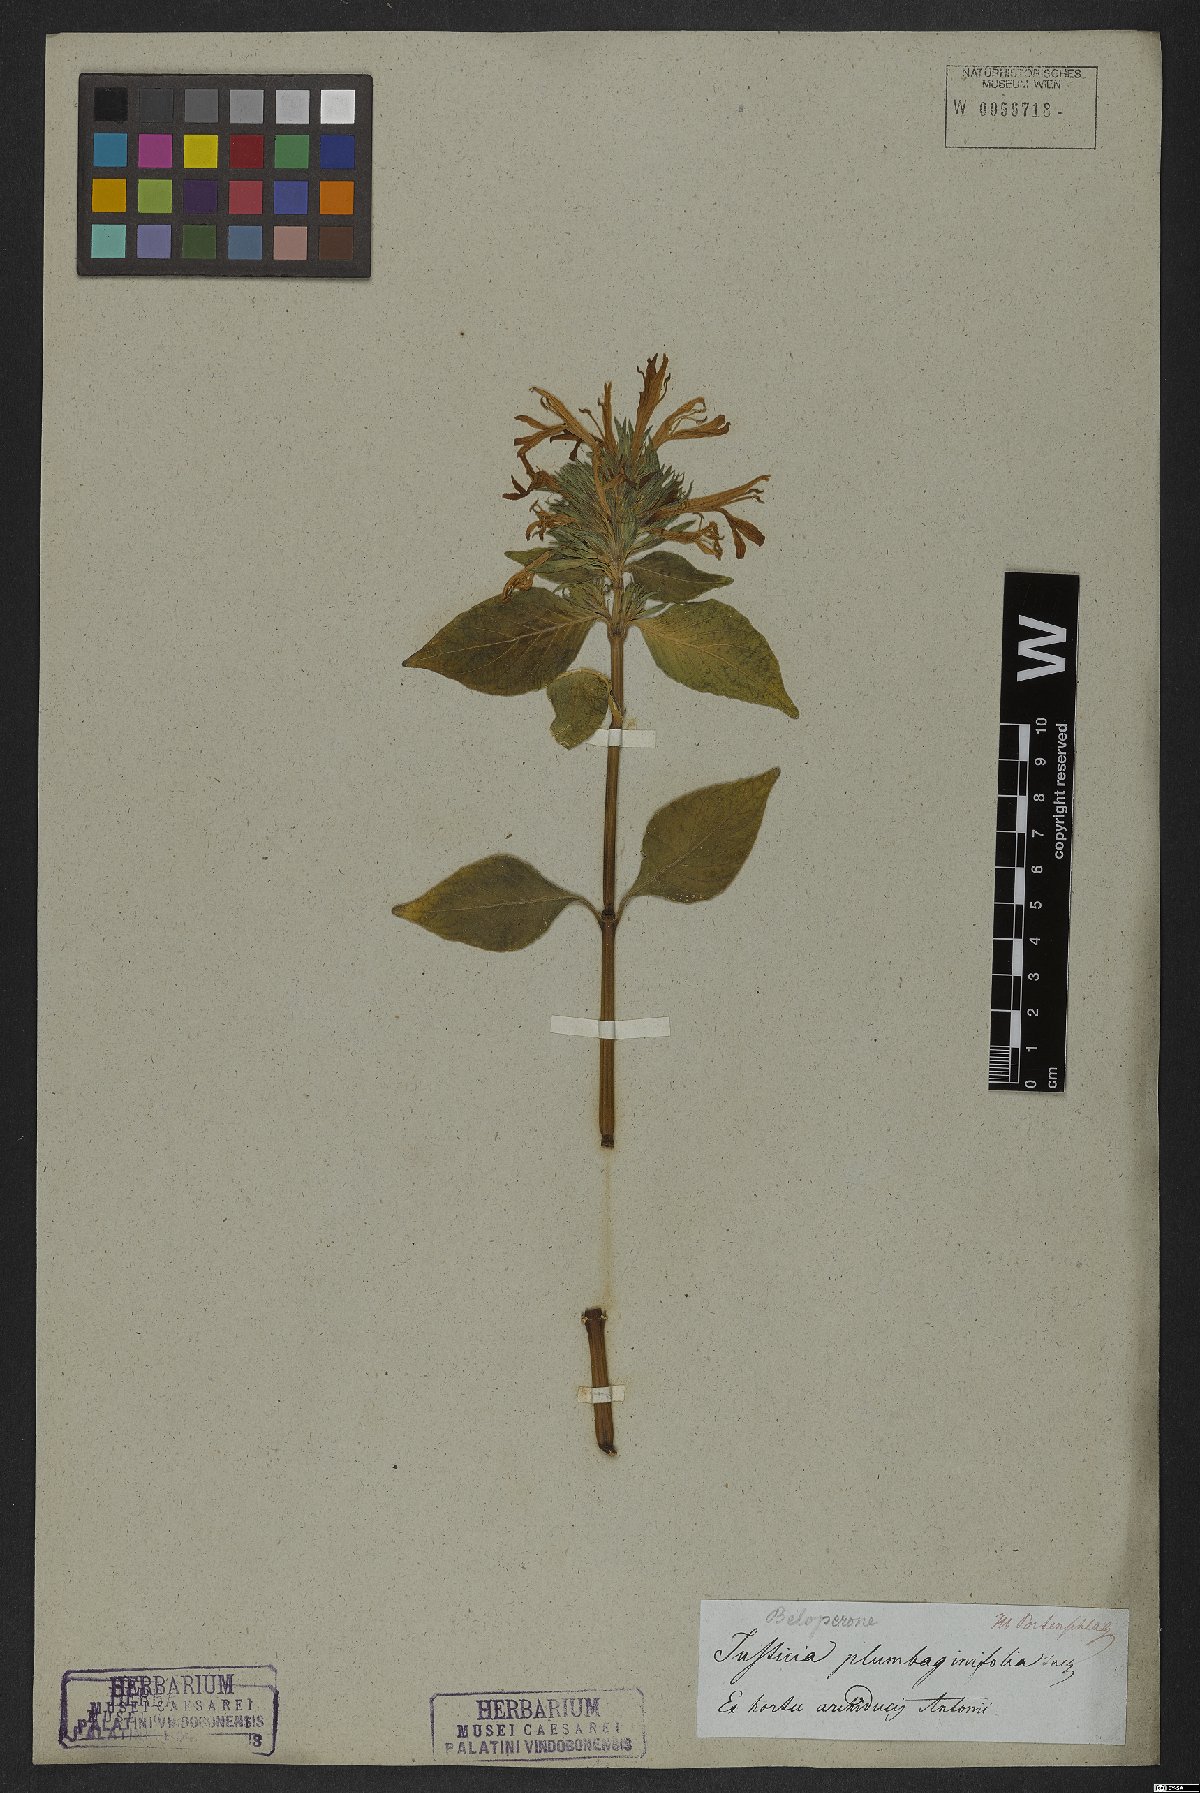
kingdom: Plantae
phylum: Tracheophyta
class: Magnoliopsida
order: Lamiales
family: Acanthaceae
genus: Justicia
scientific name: Justicia plumbaginifolia
